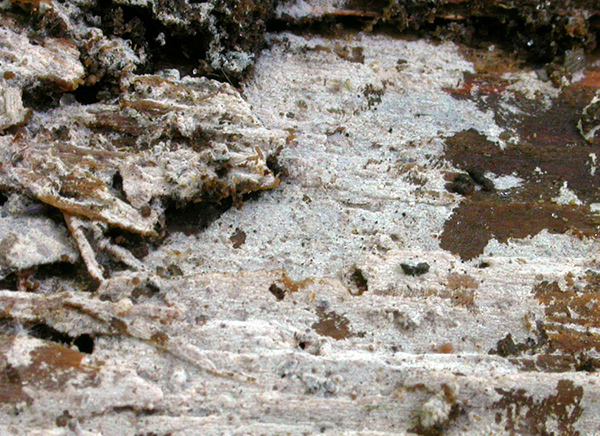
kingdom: Fungi
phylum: Basidiomycota
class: Agaricomycetes
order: Hymenochaetales
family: Hyphodontiaceae
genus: Hyphodontia
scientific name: Hyphodontia pallidula
